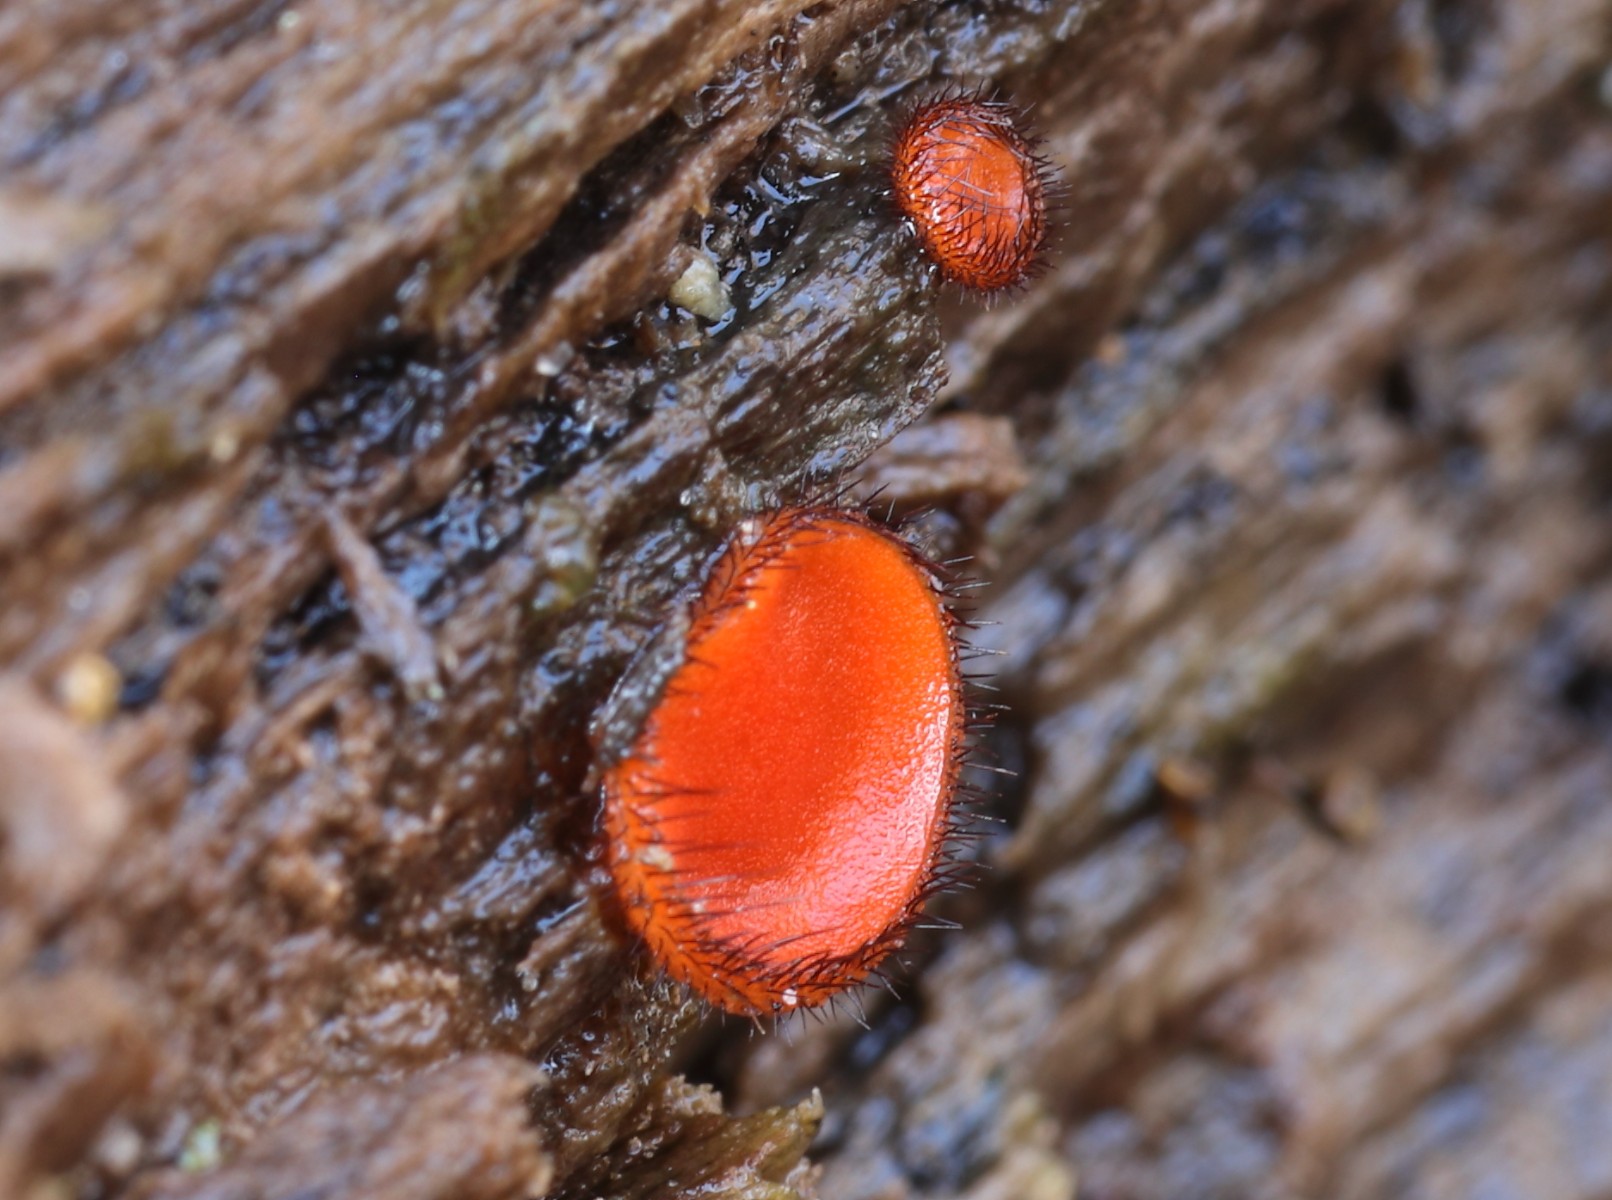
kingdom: Fungi
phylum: Ascomycota
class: Pezizomycetes
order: Pezizales
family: Pyronemataceae
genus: Scutellinia
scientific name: Scutellinia
